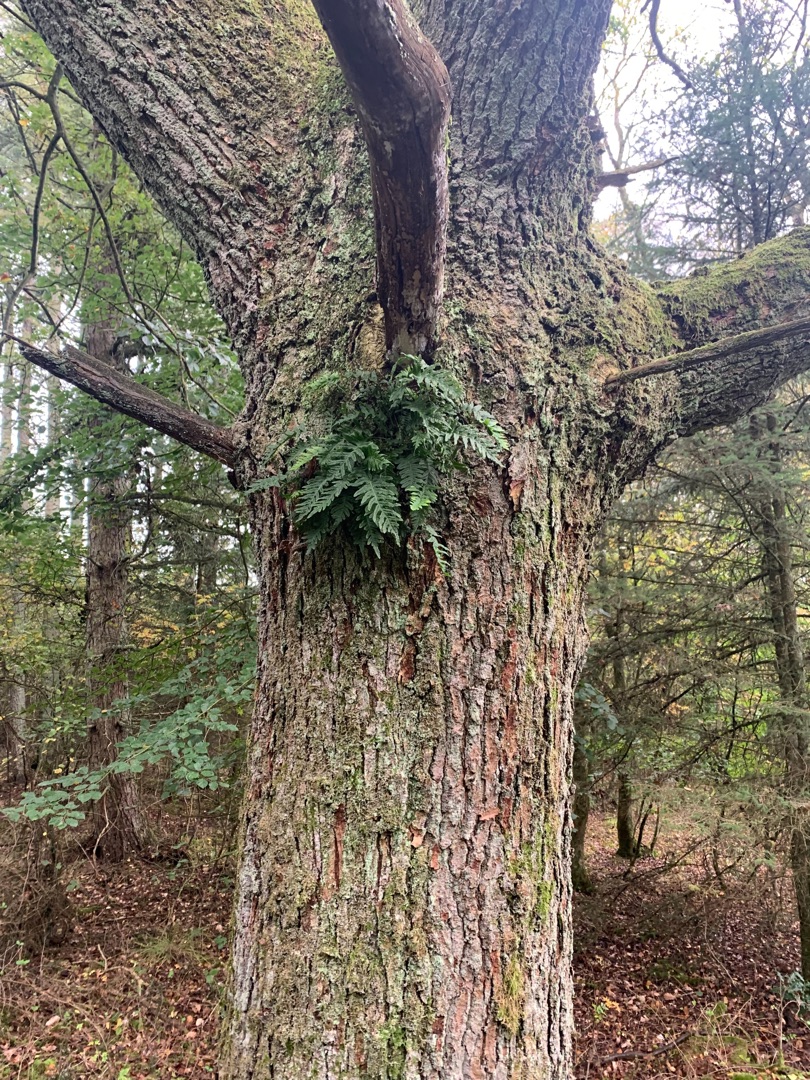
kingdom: Plantae
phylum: Tracheophyta
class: Polypodiopsida
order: Polypodiales
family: Polypodiaceae
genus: Polypodium
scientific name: Polypodium vulgare
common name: Almindelig engelsød
